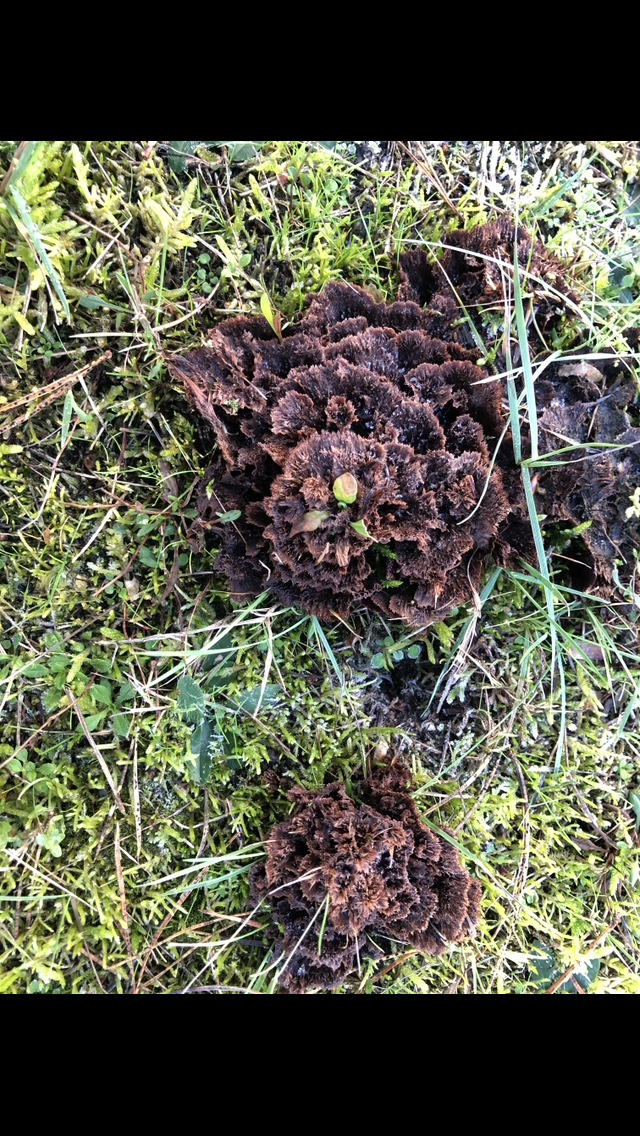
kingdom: Fungi
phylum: Basidiomycota
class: Agaricomycetes
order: Thelephorales
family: Thelephoraceae
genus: Thelephora
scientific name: Thelephora terrestris
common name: fliget frynsesvamp
